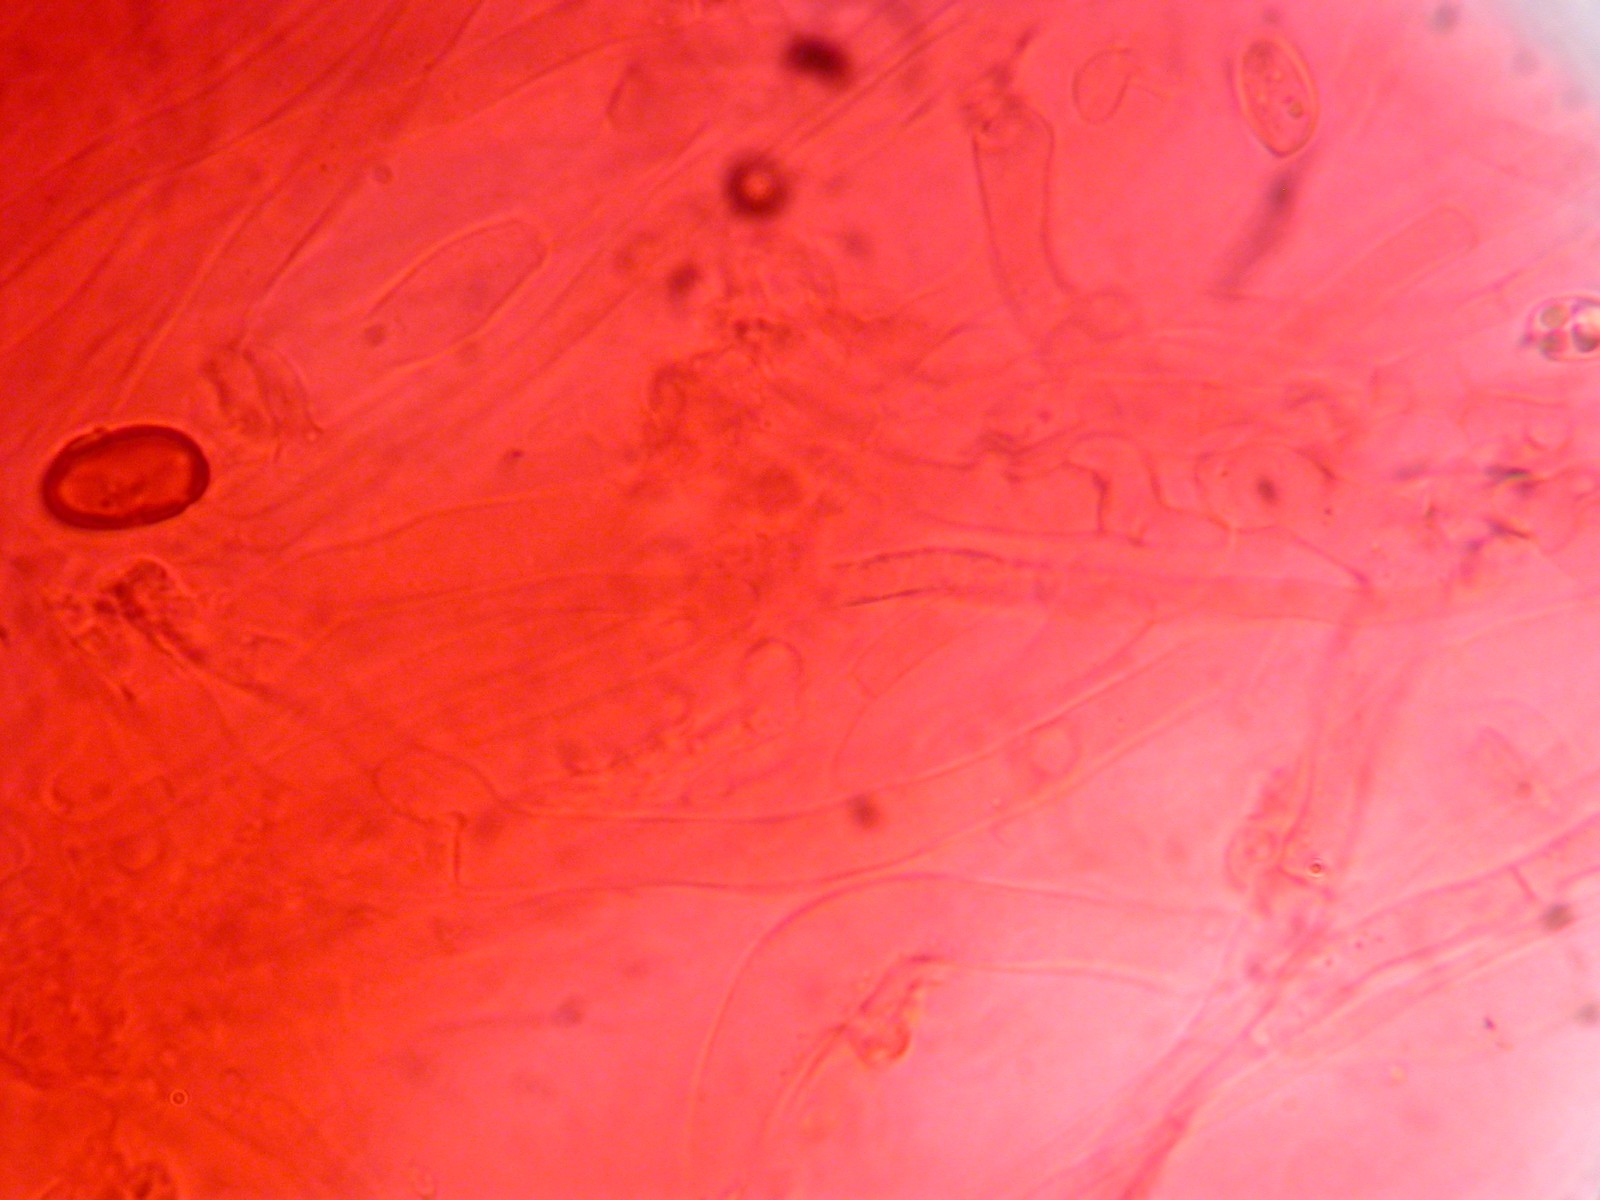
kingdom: Fungi
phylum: Basidiomycota
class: Agaricomycetes
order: Agaricales
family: Tricholomataceae
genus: Clitocybe
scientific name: Clitocybe metachroa
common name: grå tragthat
